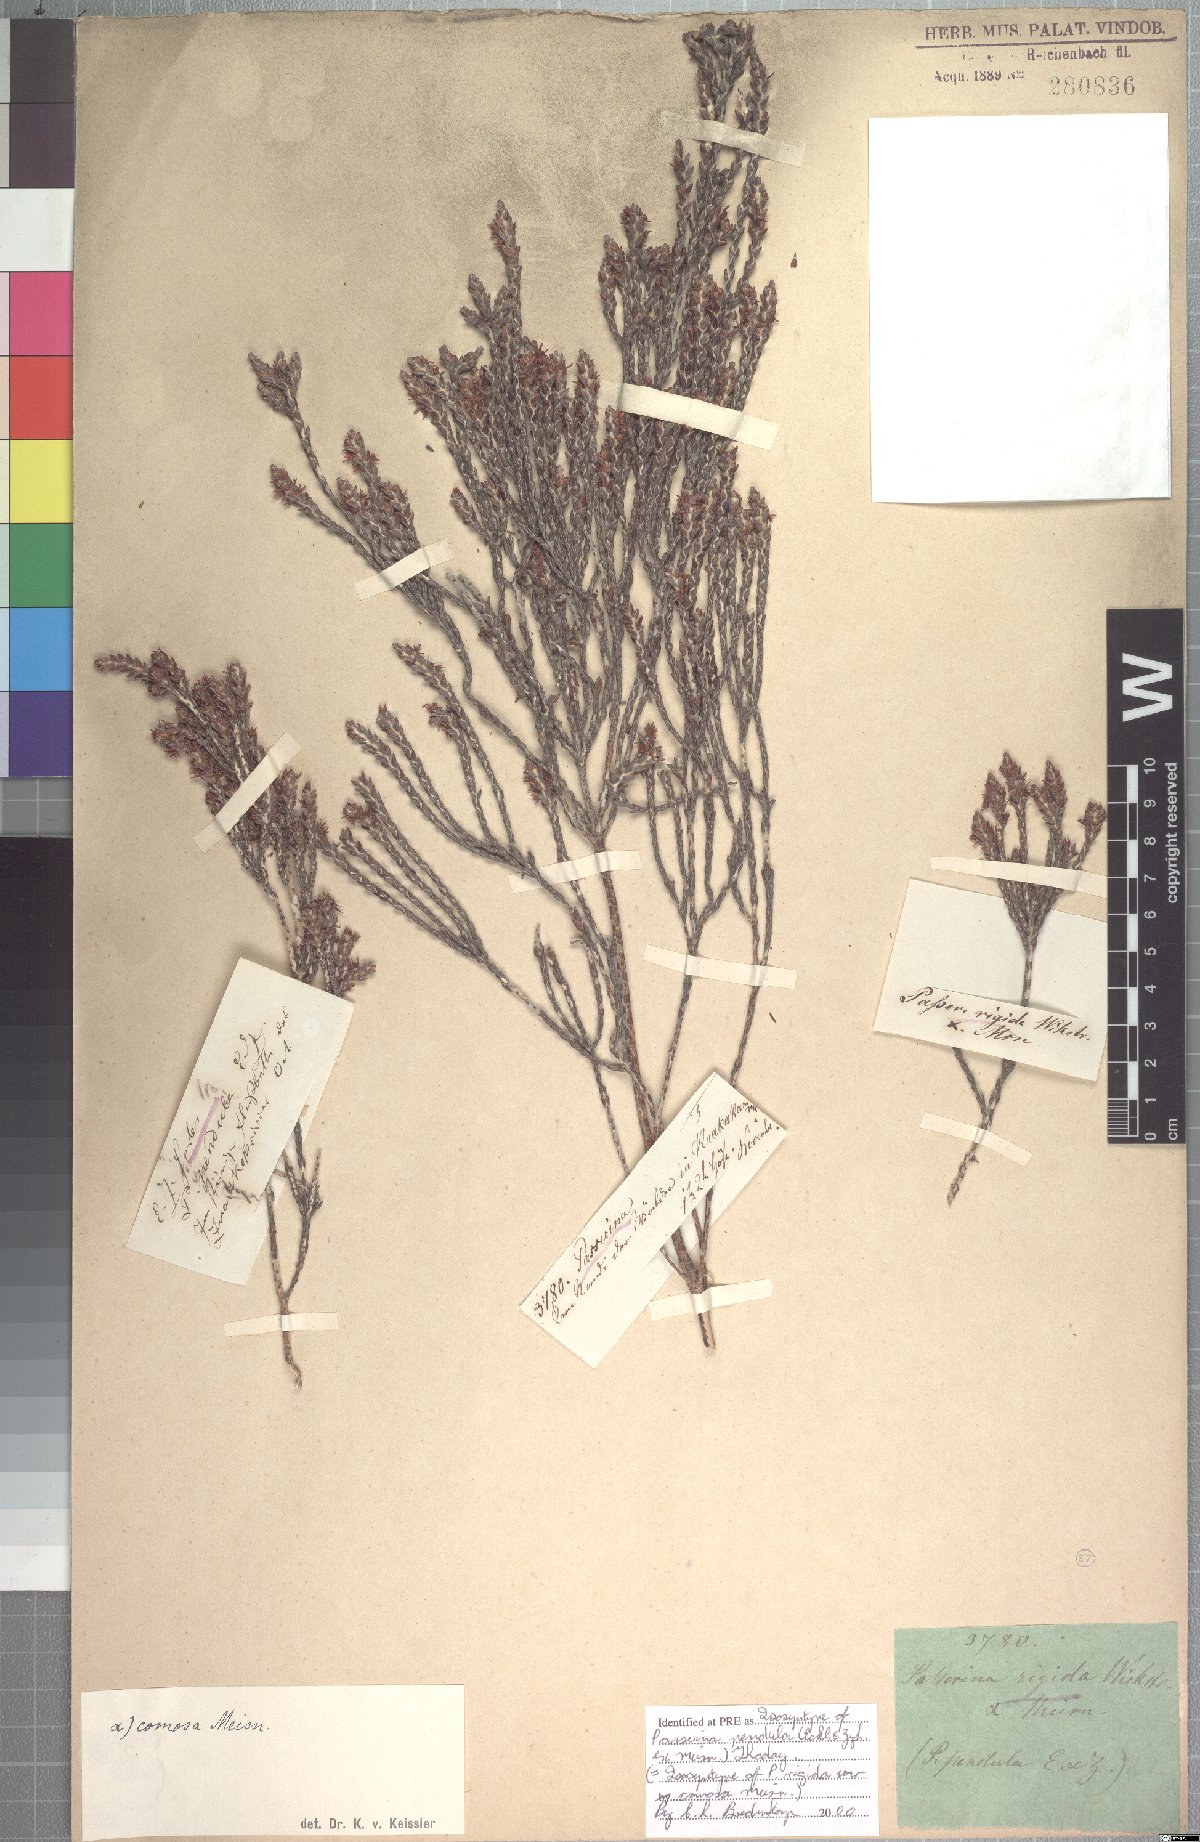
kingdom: Plantae
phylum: Tracheophyta
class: Magnoliopsida
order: Malvales
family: Thymelaeaceae
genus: Passerina
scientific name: Passerina pendula
